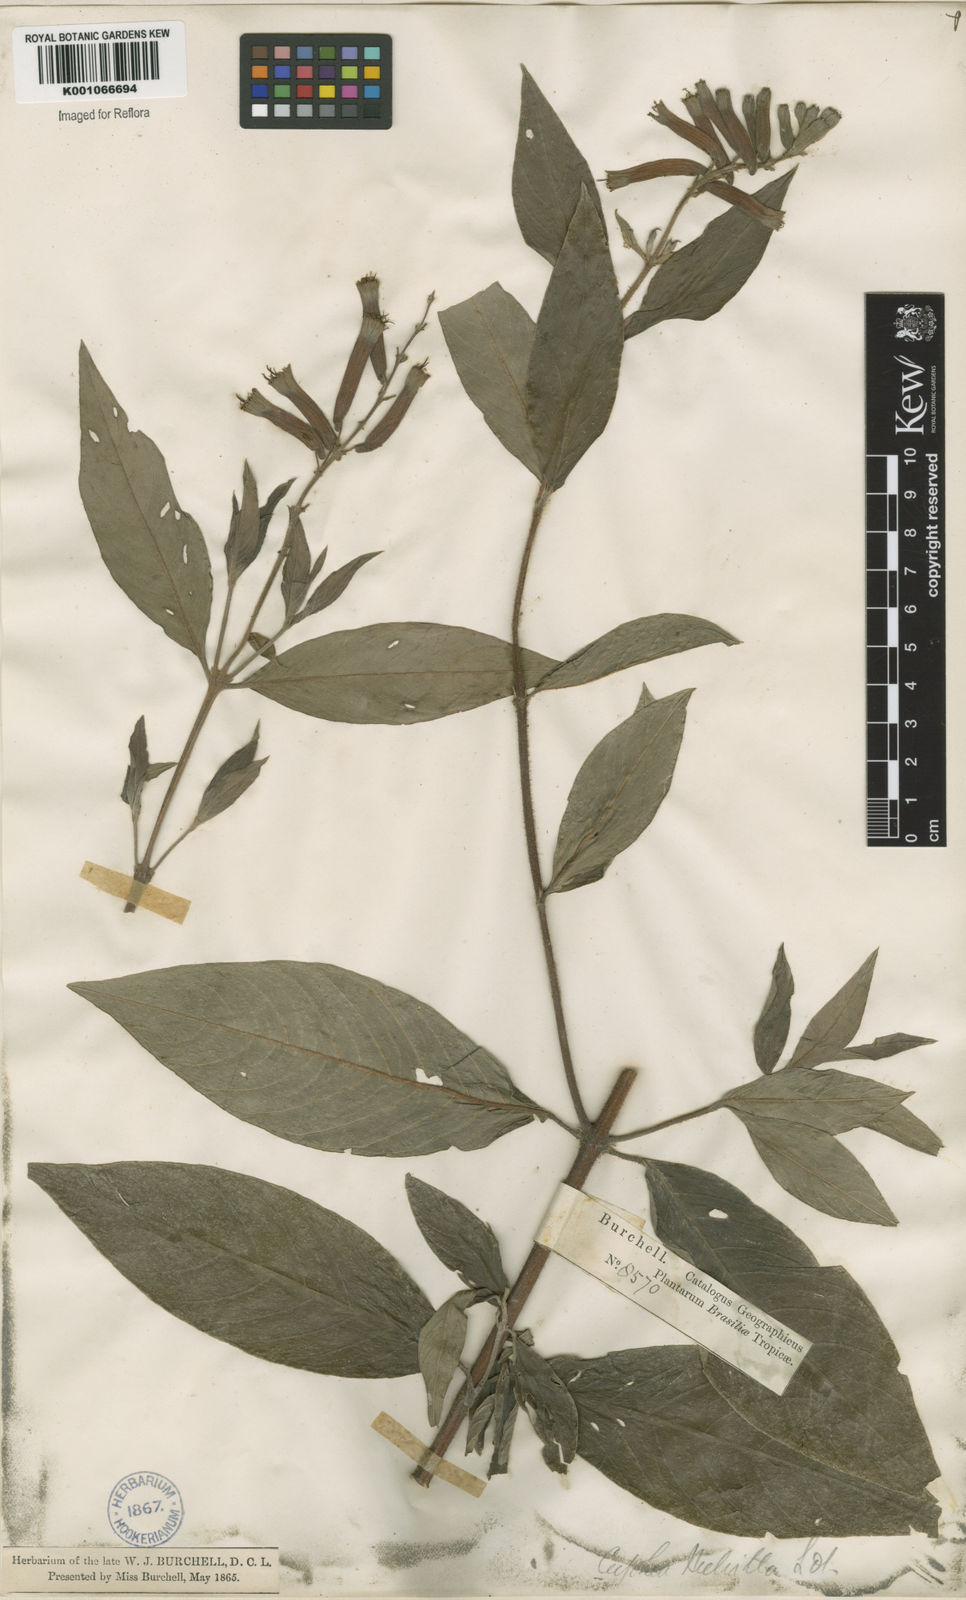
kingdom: Plantae
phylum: Tracheophyta
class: Magnoliopsida
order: Myrtales
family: Lythraceae
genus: Cuphea
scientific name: Cuphea melvilla
